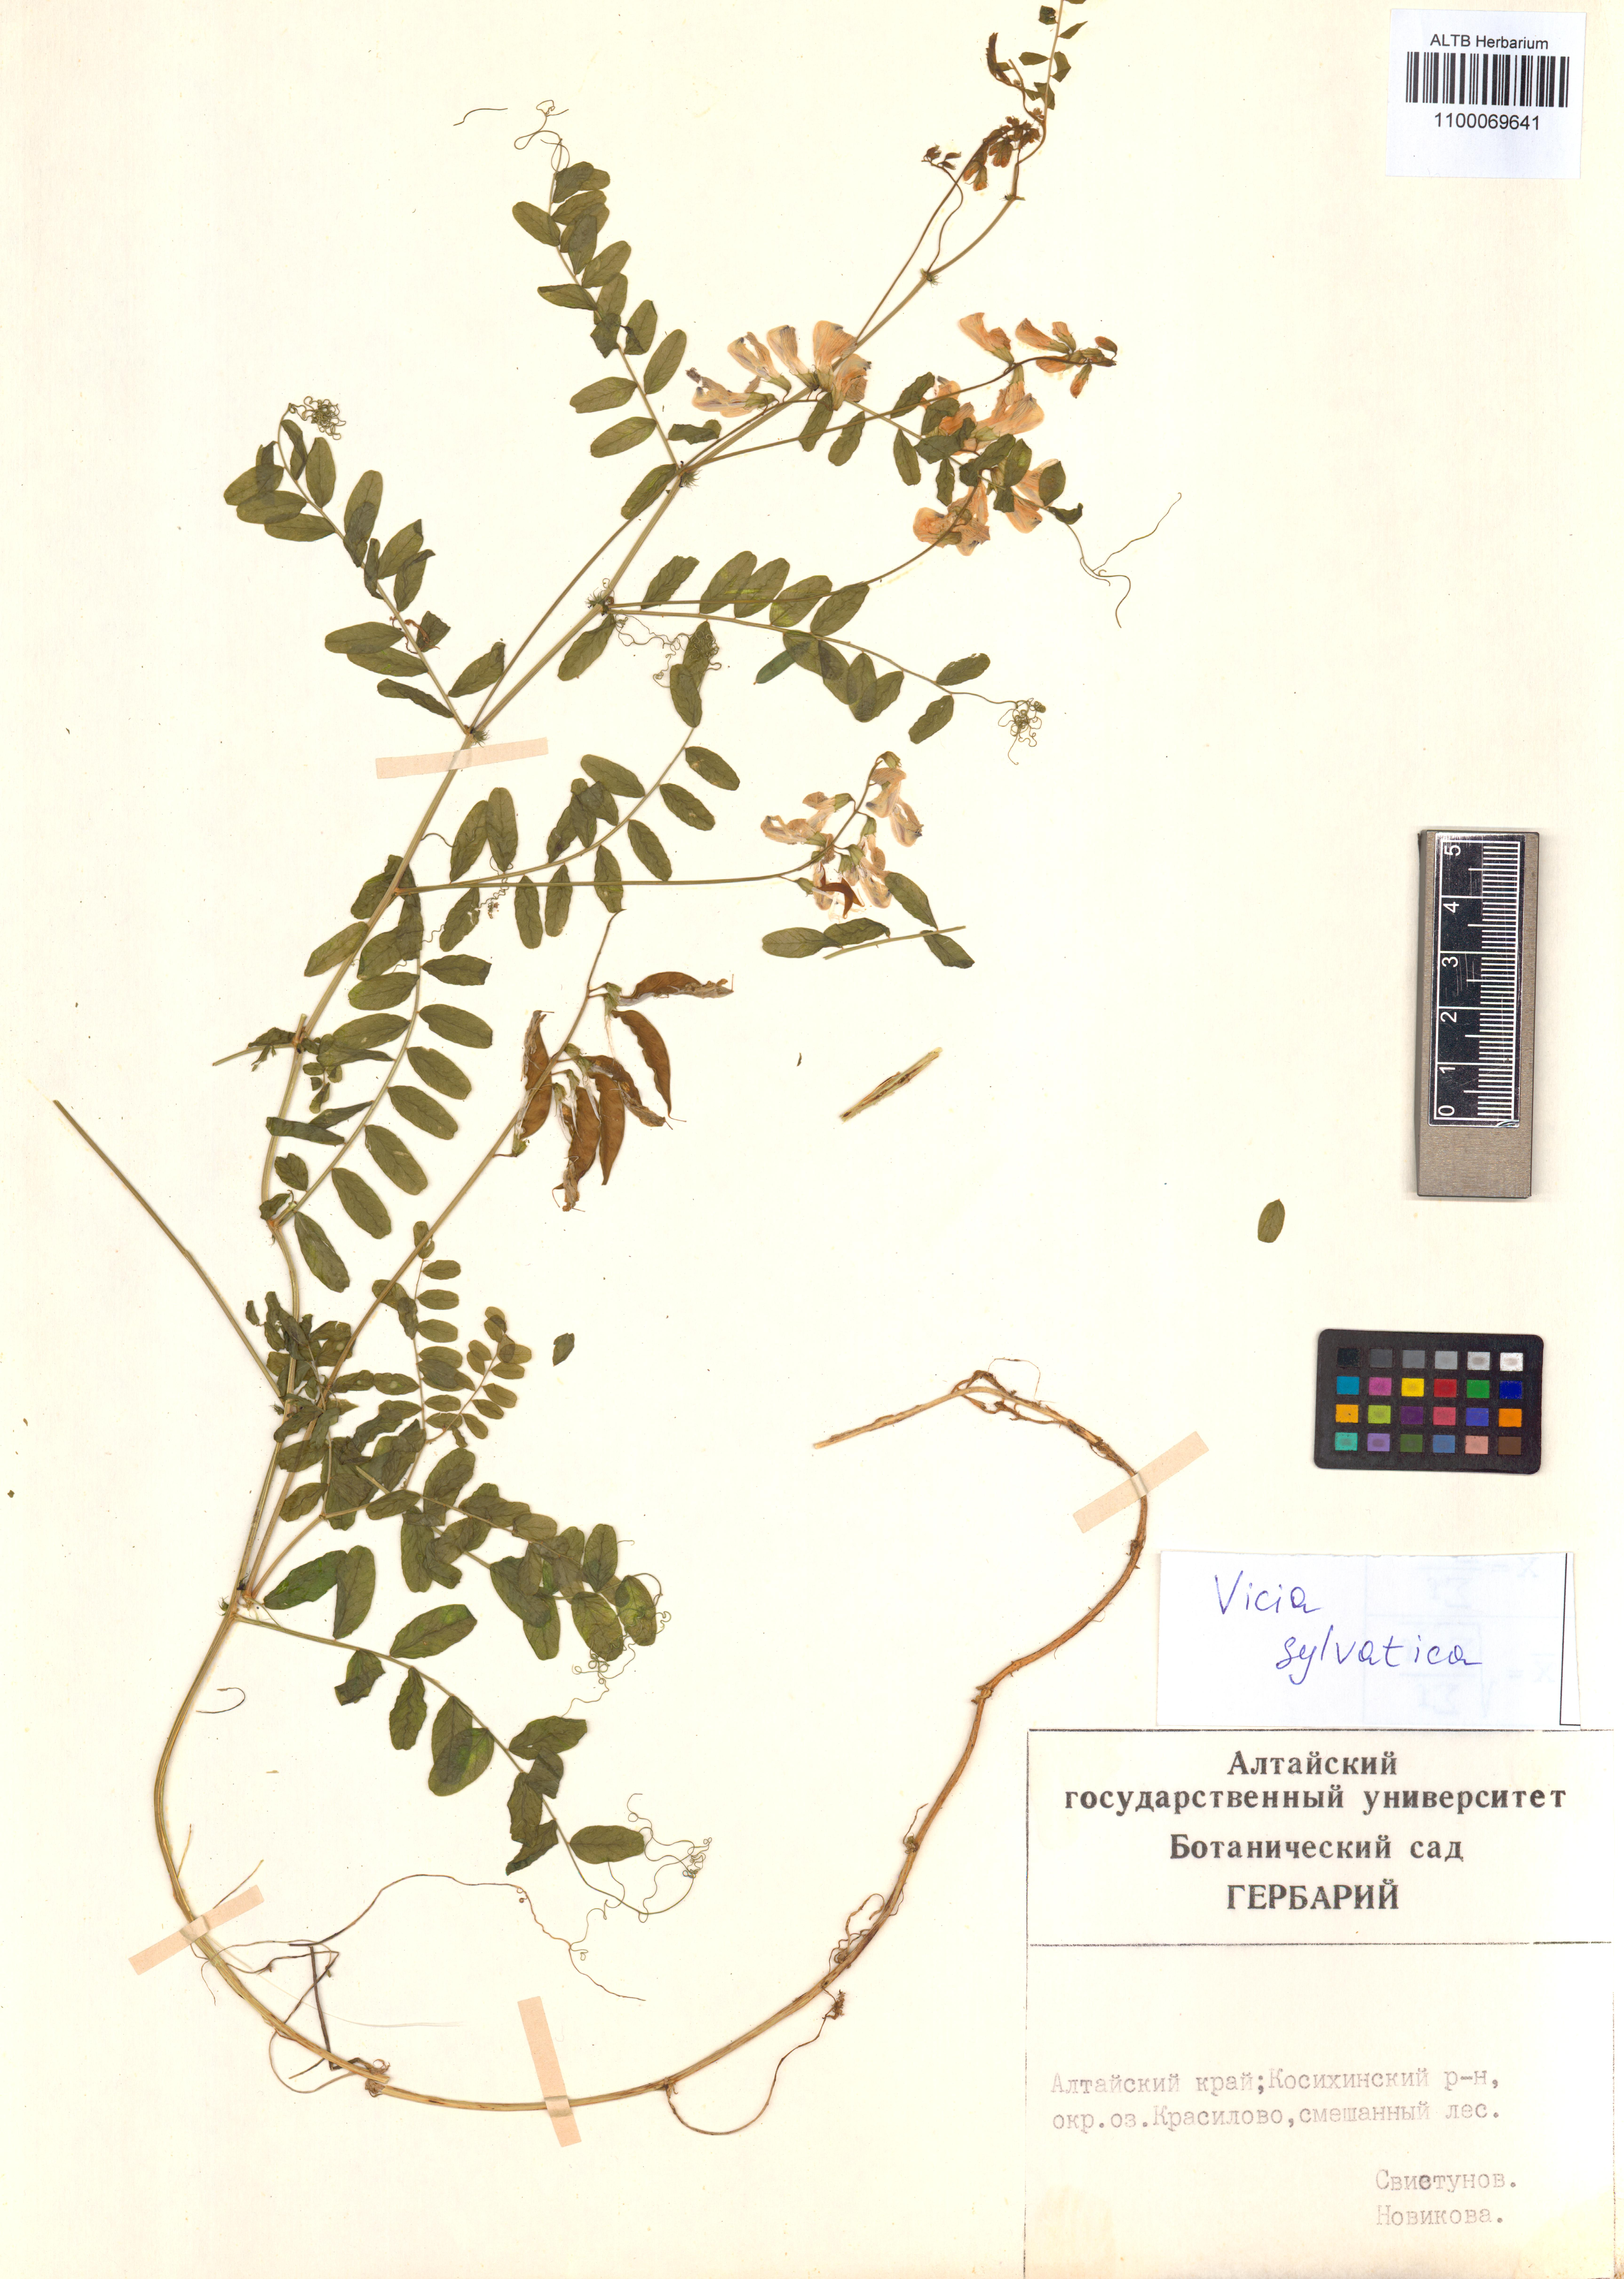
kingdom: Plantae
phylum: Tracheophyta
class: Magnoliopsida
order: Fabales
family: Fabaceae
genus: Vicia
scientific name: Vicia bakeri
